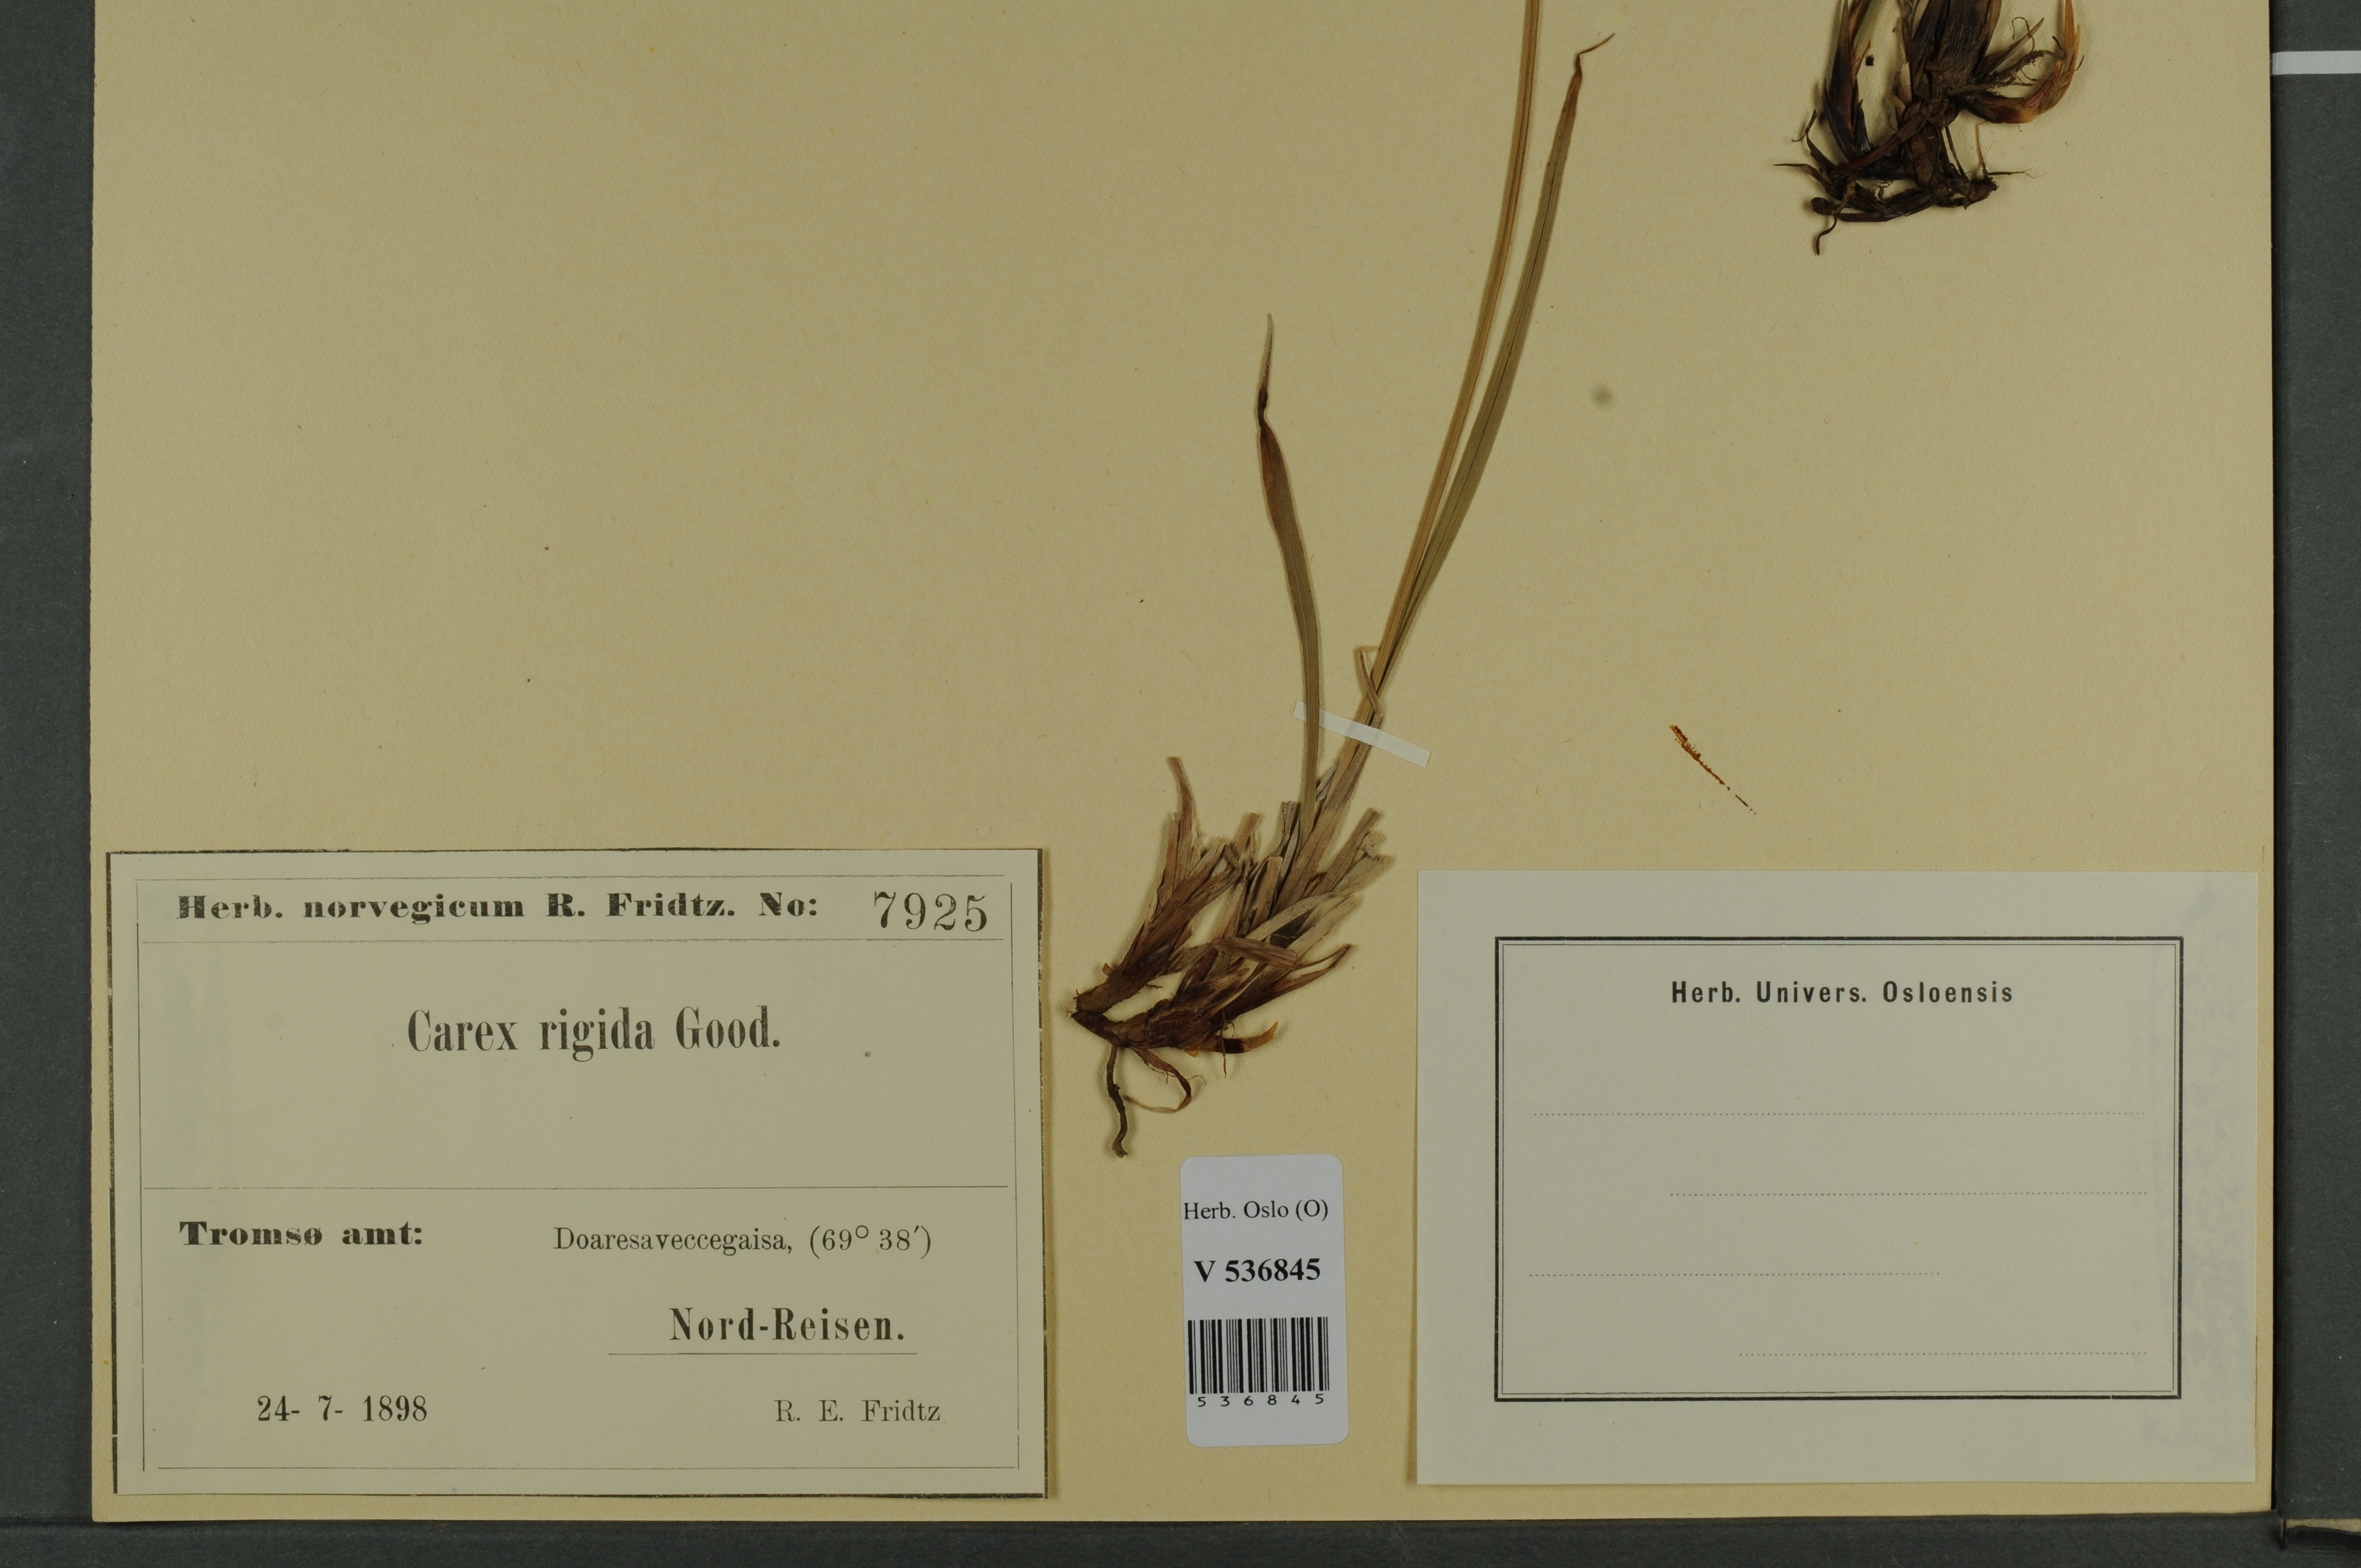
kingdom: Plantae
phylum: Tracheophyta
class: Liliopsida
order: Poales
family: Cyperaceae
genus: Carex
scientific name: Carex dacica
